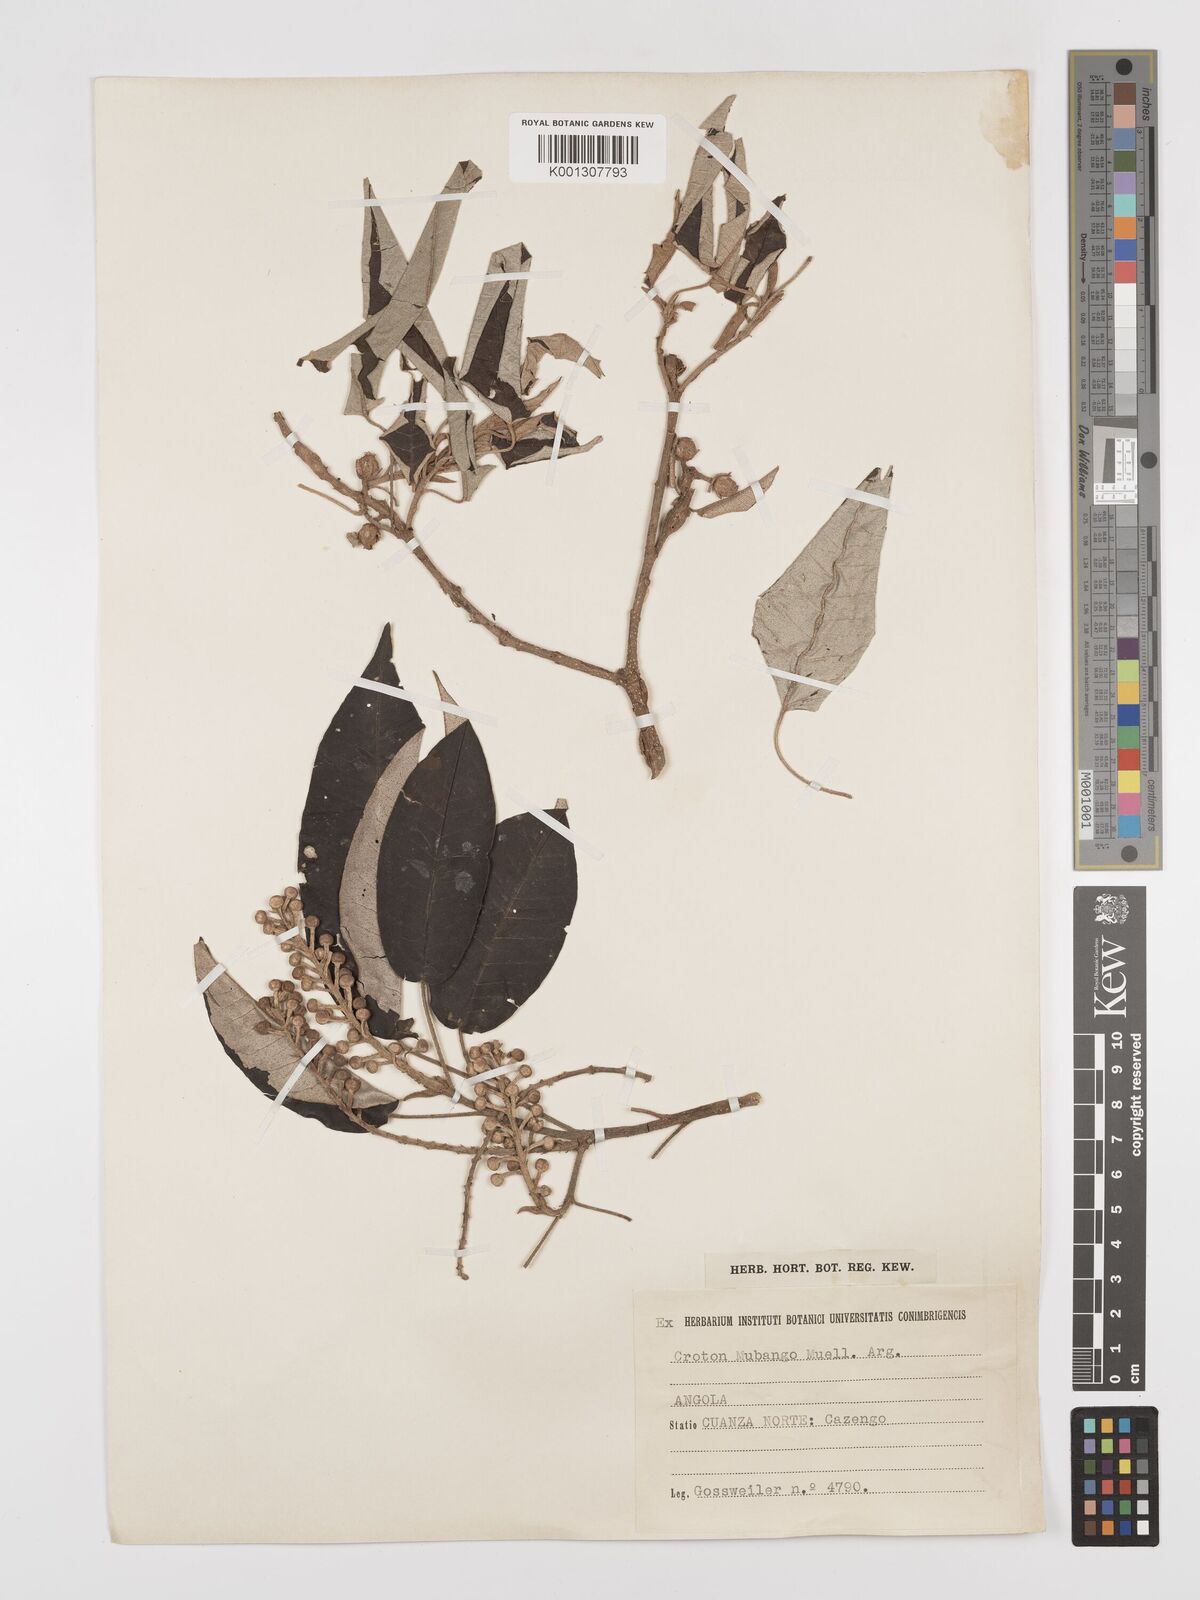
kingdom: Plantae
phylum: Tracheophyta
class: Magnoliopsida
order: Malpighiales
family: Euphorbiaceae
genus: Croton
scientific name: Croton mubango
